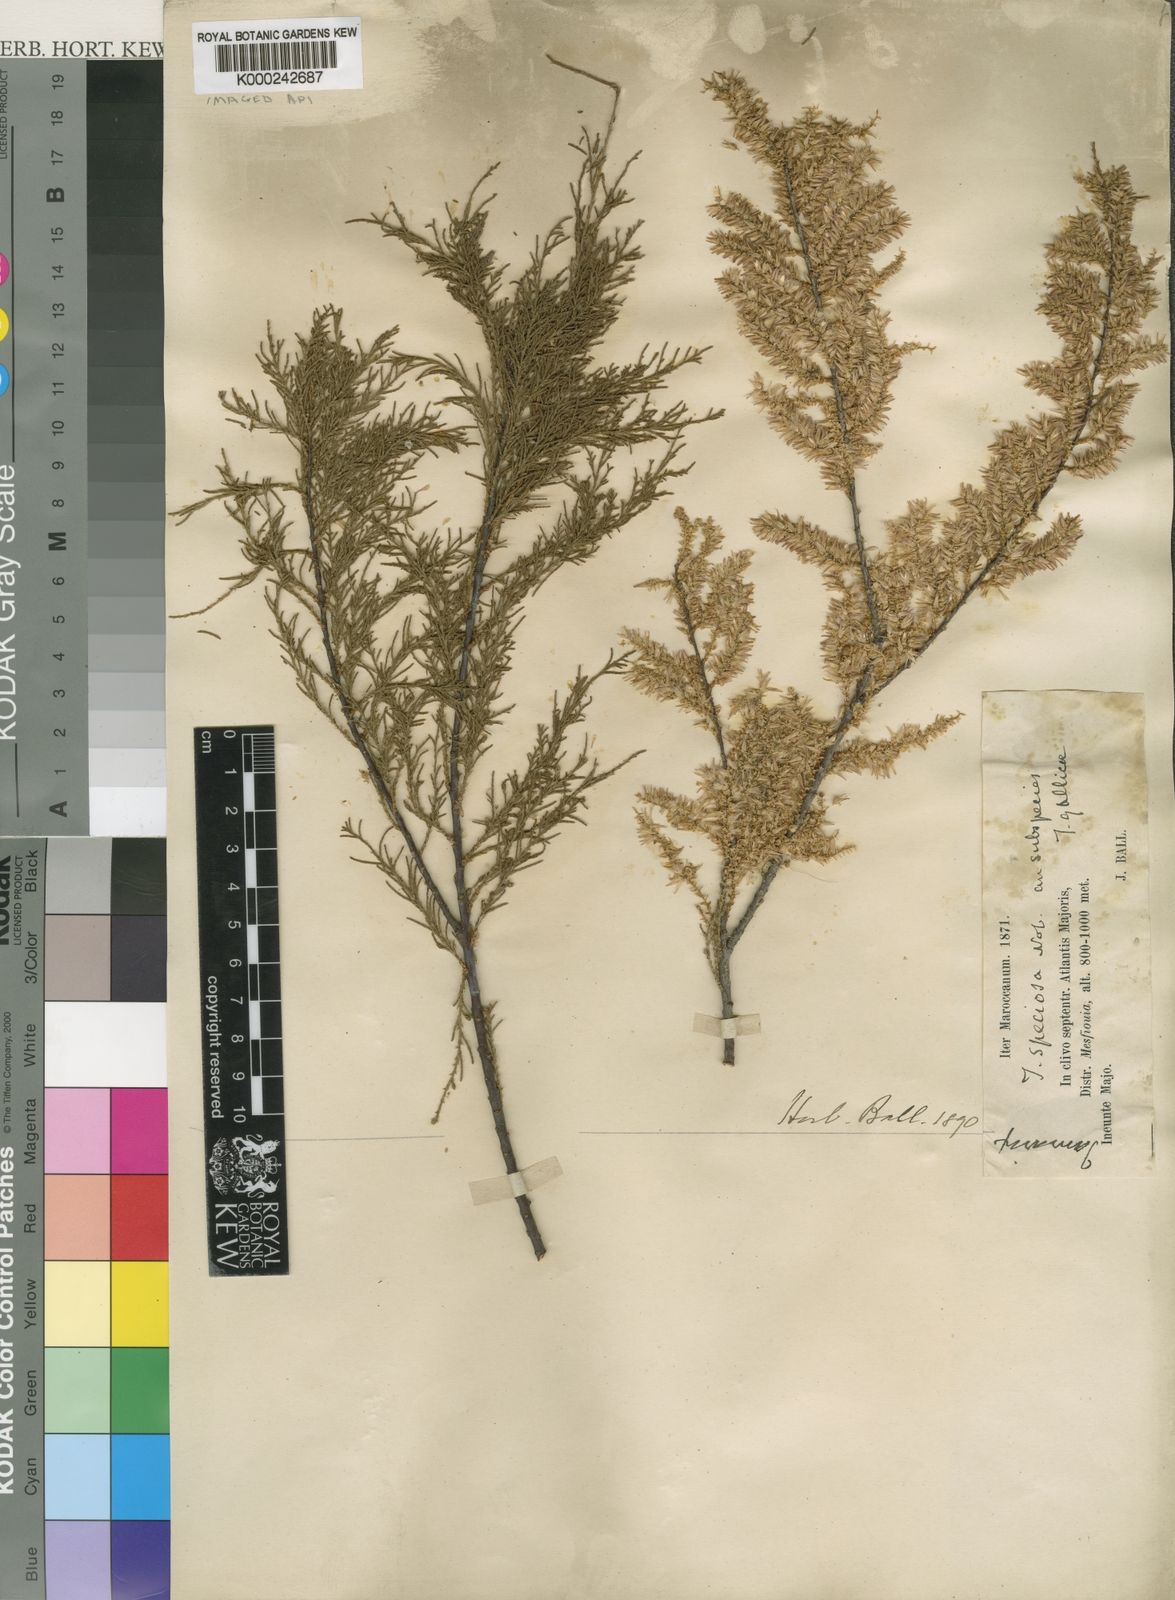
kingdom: Plantae
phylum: Tracheophyta
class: Magnoliopsida
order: Caryophyllales
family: Tamaricaceae
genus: Tamarix
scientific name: Tamarix tetrandra
